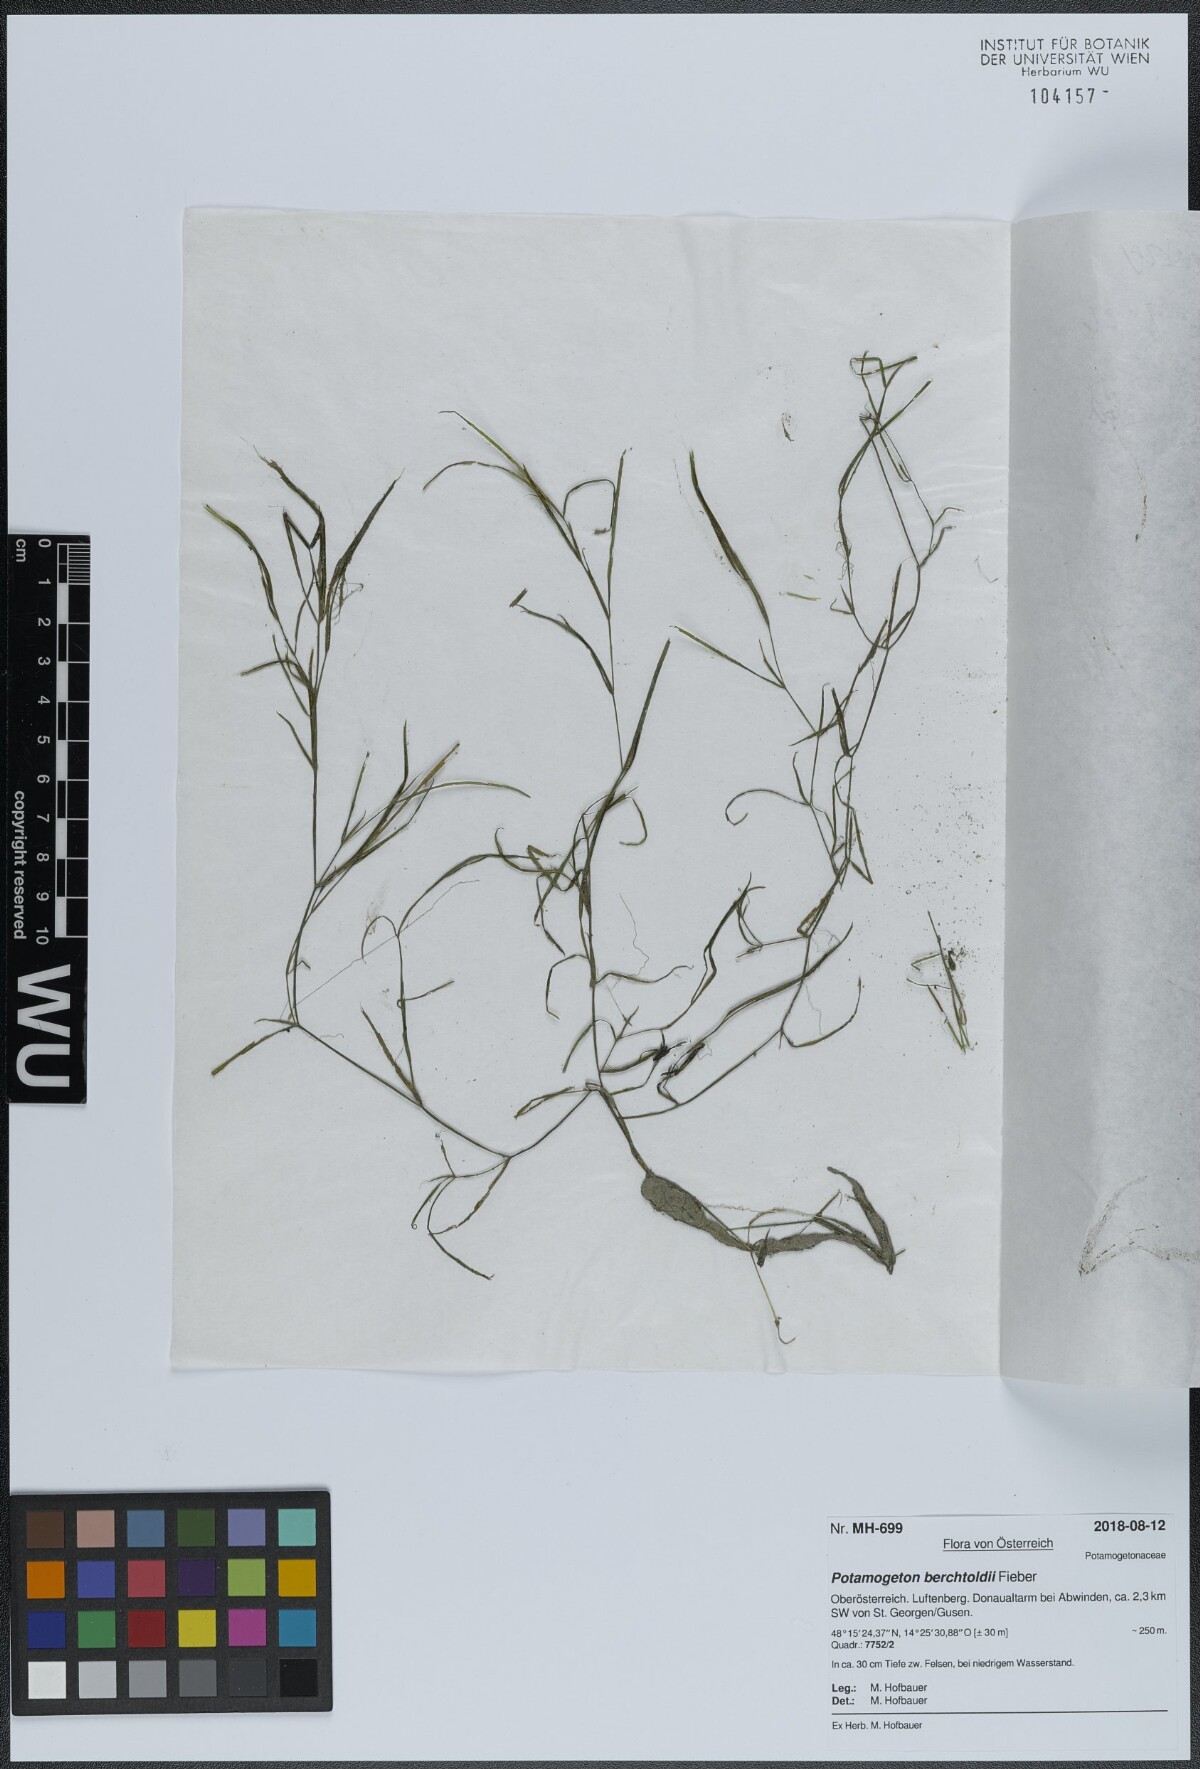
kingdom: Plantae
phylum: Tracheophyta
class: Liliopsida
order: Alismatales
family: Potamogetonaceae
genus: Potamogeton
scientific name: Potamogeton berchtoldii
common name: Small pondweed
